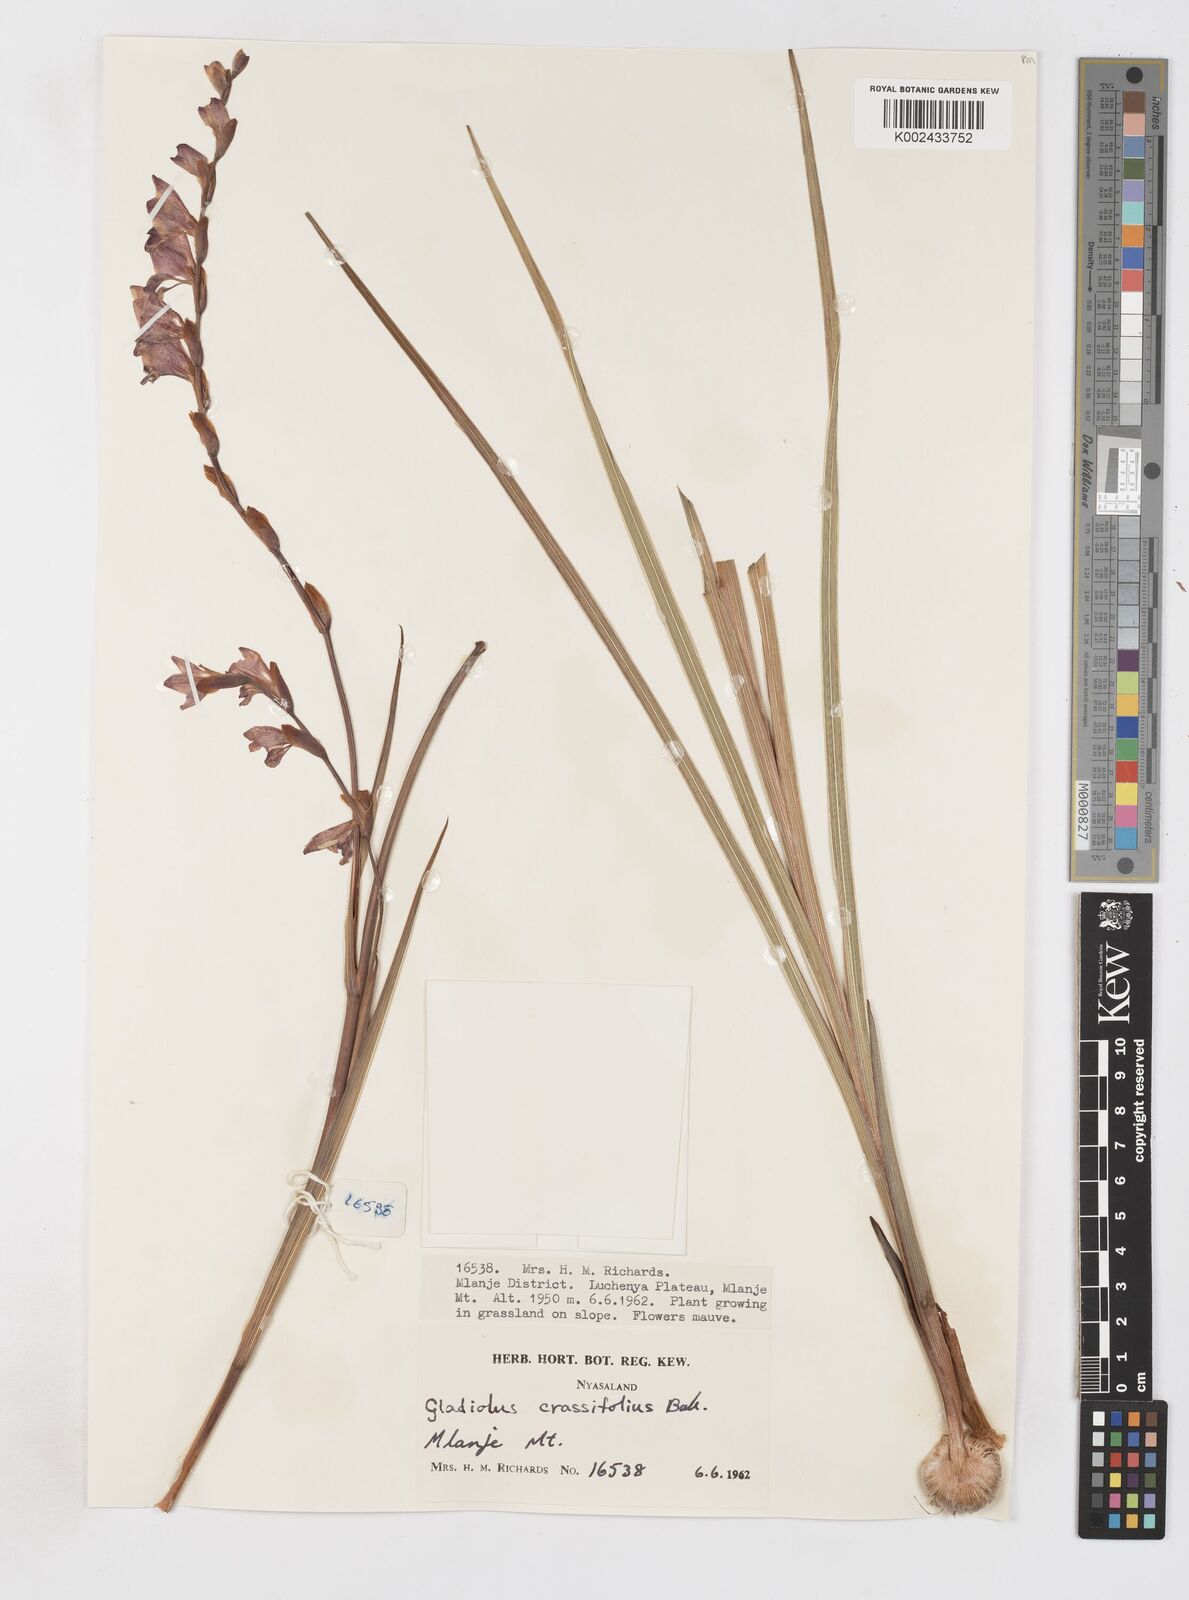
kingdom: Plantae
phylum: Tracheophyta
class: Liliopsida
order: Asparagales
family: Iridaceae
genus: Gladiolus
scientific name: Gladiolus crassifolius
